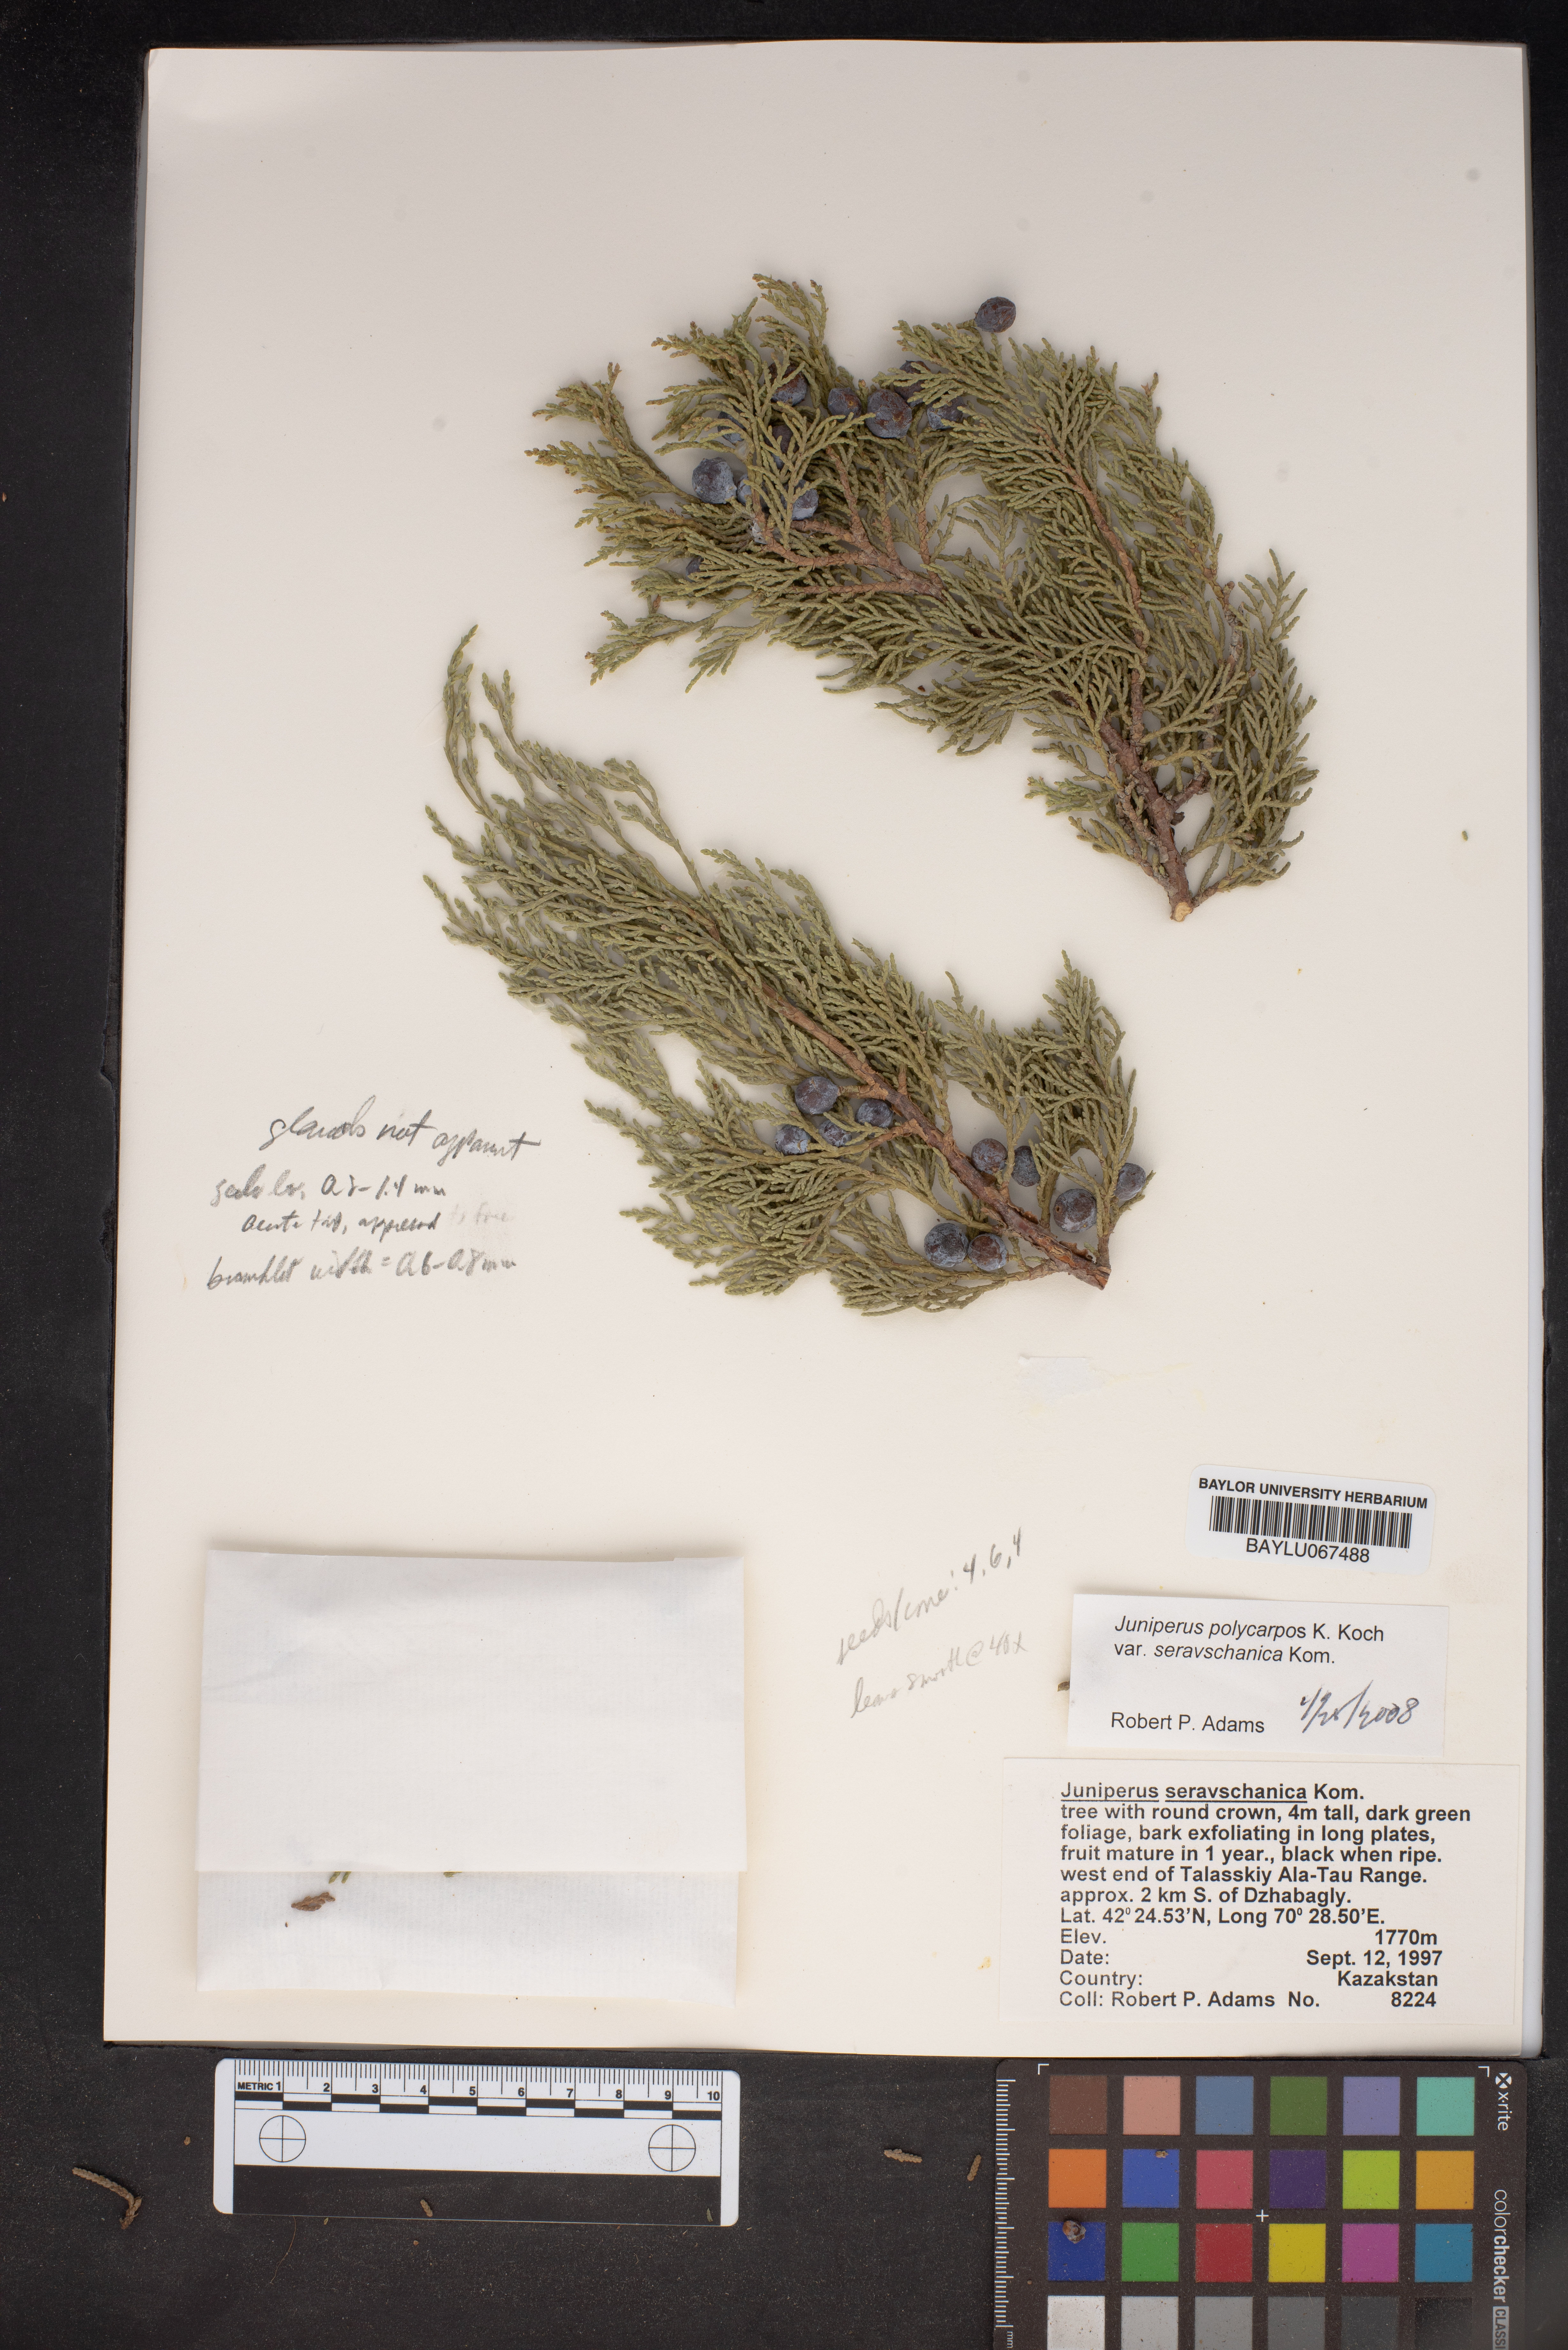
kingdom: Plantae
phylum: Tracheophyta
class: Pinopsida
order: Pinales
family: Cupressaceae
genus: Juniperus
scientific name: Juniperus excelsa
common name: Crimean juniper
